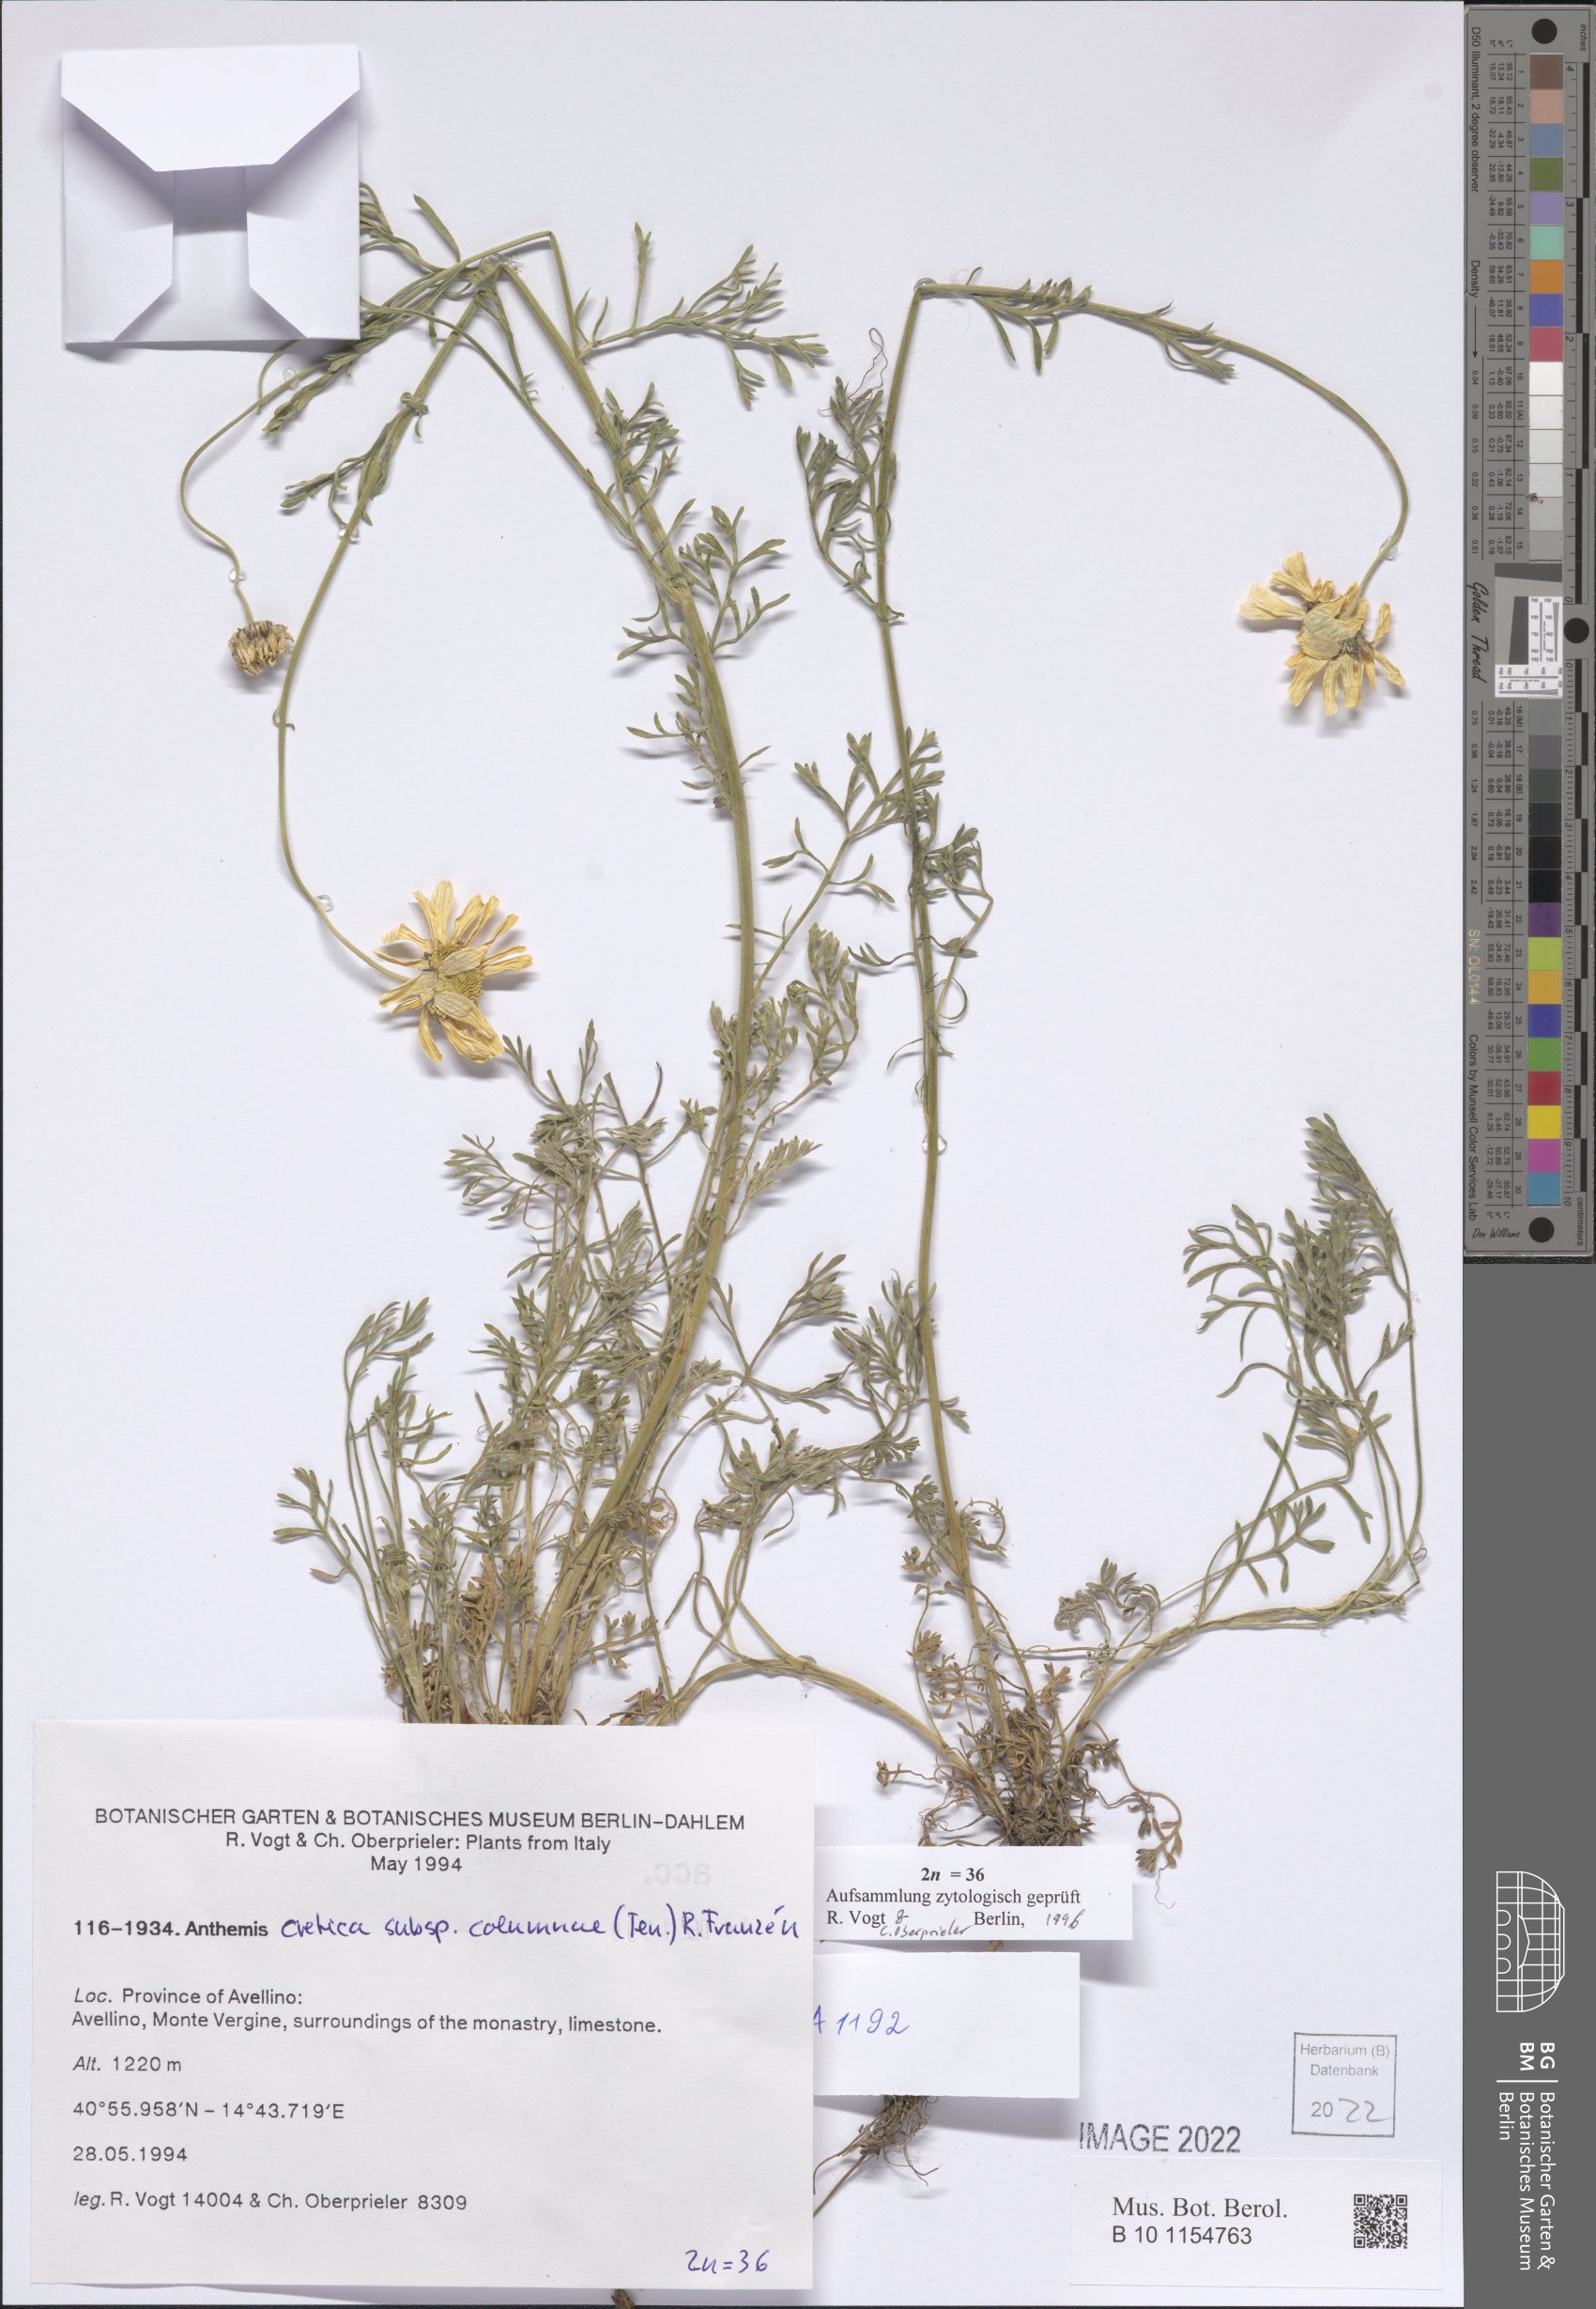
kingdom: Plantae
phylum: Tracheophyta
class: Magnoliopsida
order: Asterales
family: Asteraceae
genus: Anthemis
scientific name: Anthemis cretica
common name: Mountain dog-daisy
